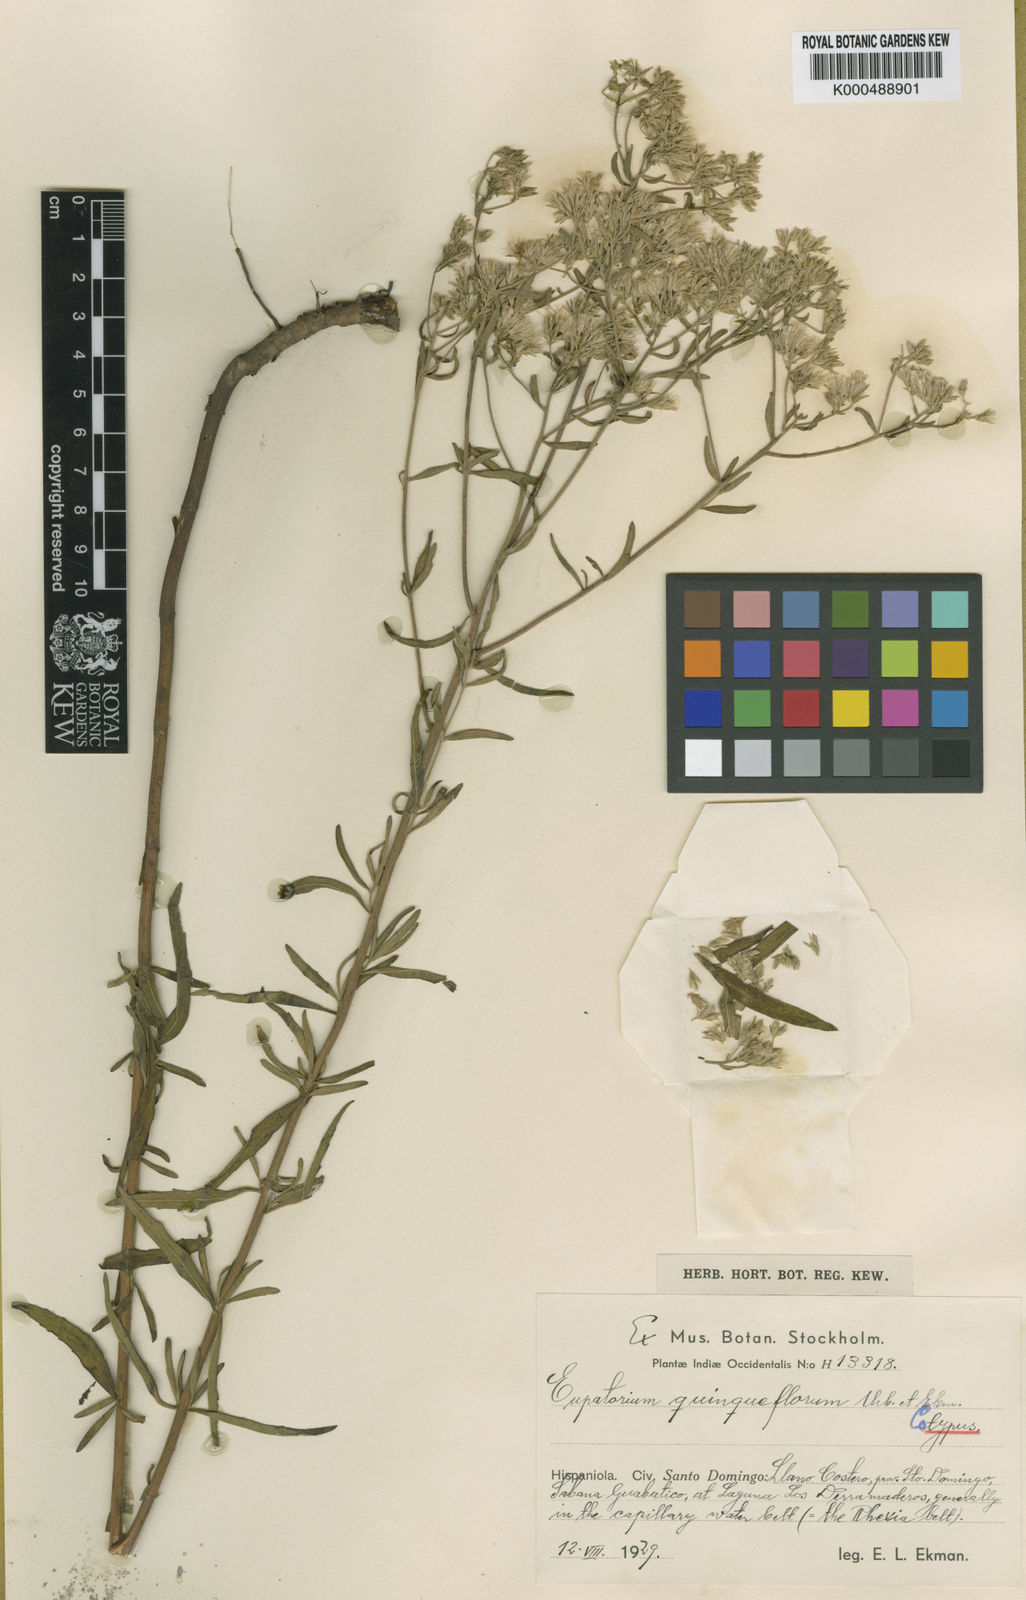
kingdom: Plantae
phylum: Tracheophyta
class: Magnoliopsida
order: Asterales
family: Asteraceae
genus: Eupatorium
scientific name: Eupatorium mohrii
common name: Mohr's thoroughwort
